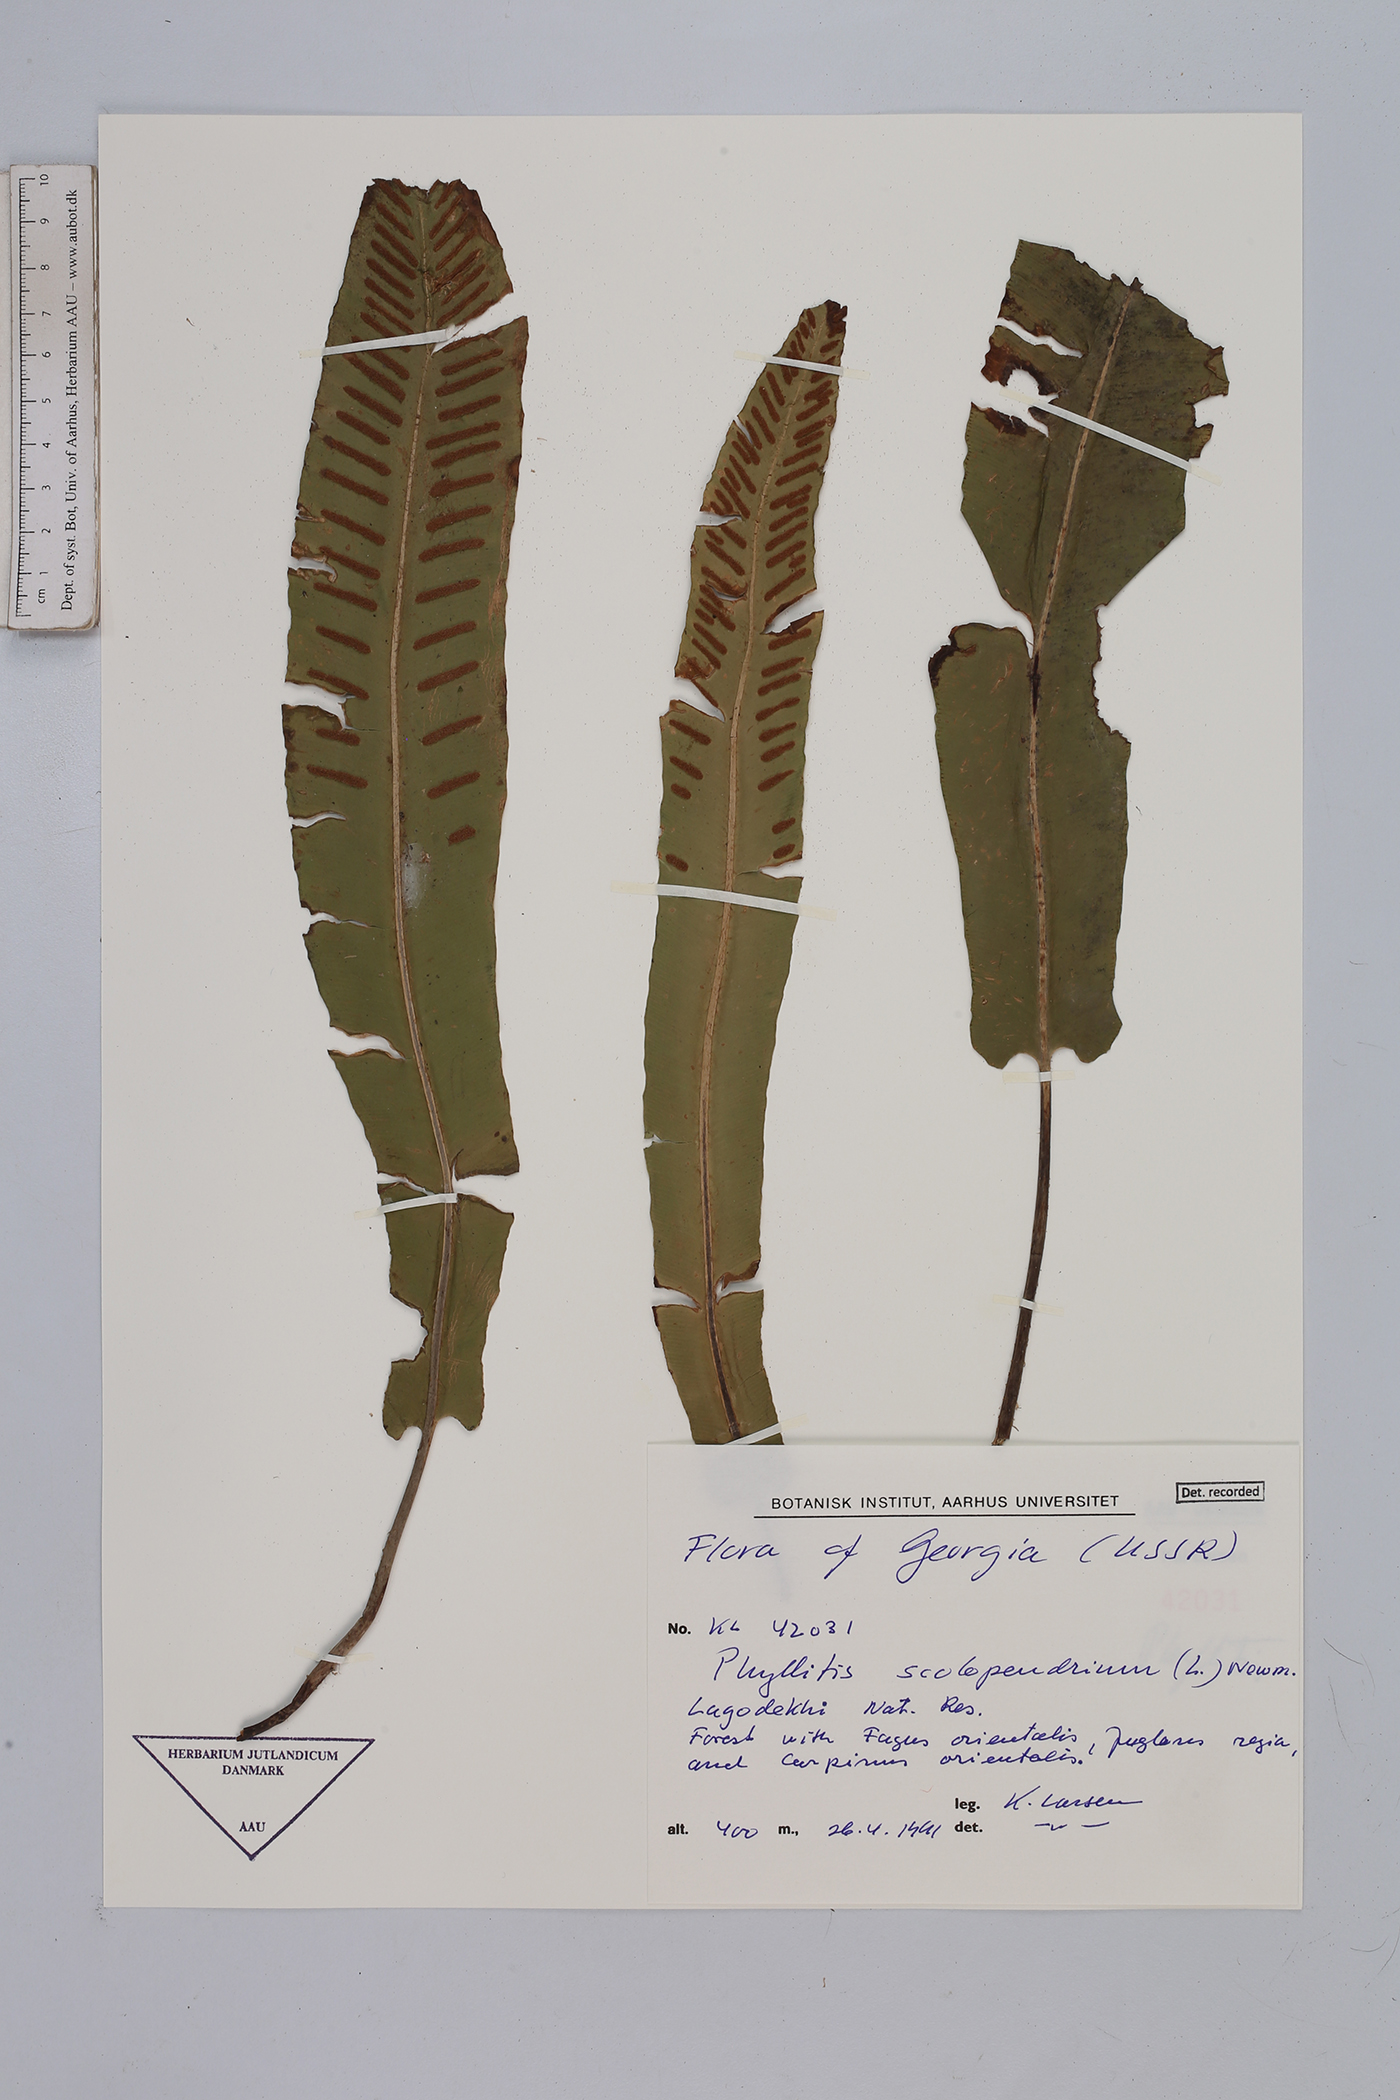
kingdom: Plantae
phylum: Tracheophyta
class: Polypodiopsida
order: Polypodiales
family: Aspleniaceae
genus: Asplenium
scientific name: Asplenium scolopendrium
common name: Hart's-tongue fern
